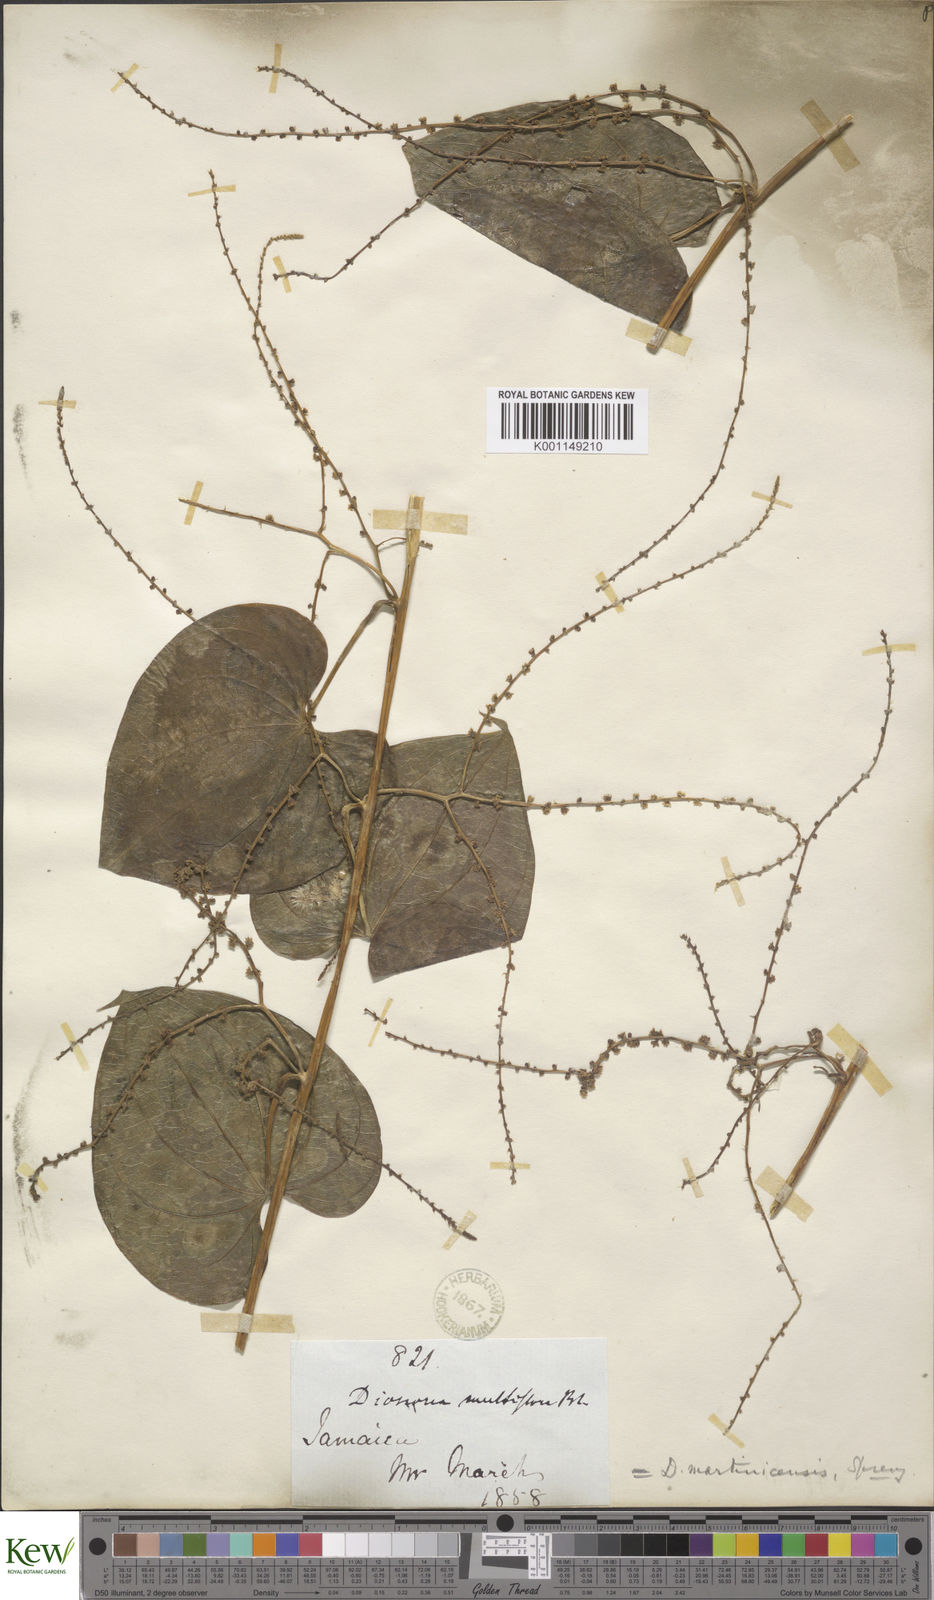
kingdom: Plantae
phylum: Tracheophyta
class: Liliopsida
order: Dioscoreales
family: Dioscoreaceae
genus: Dioscorea
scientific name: Dioscorea
